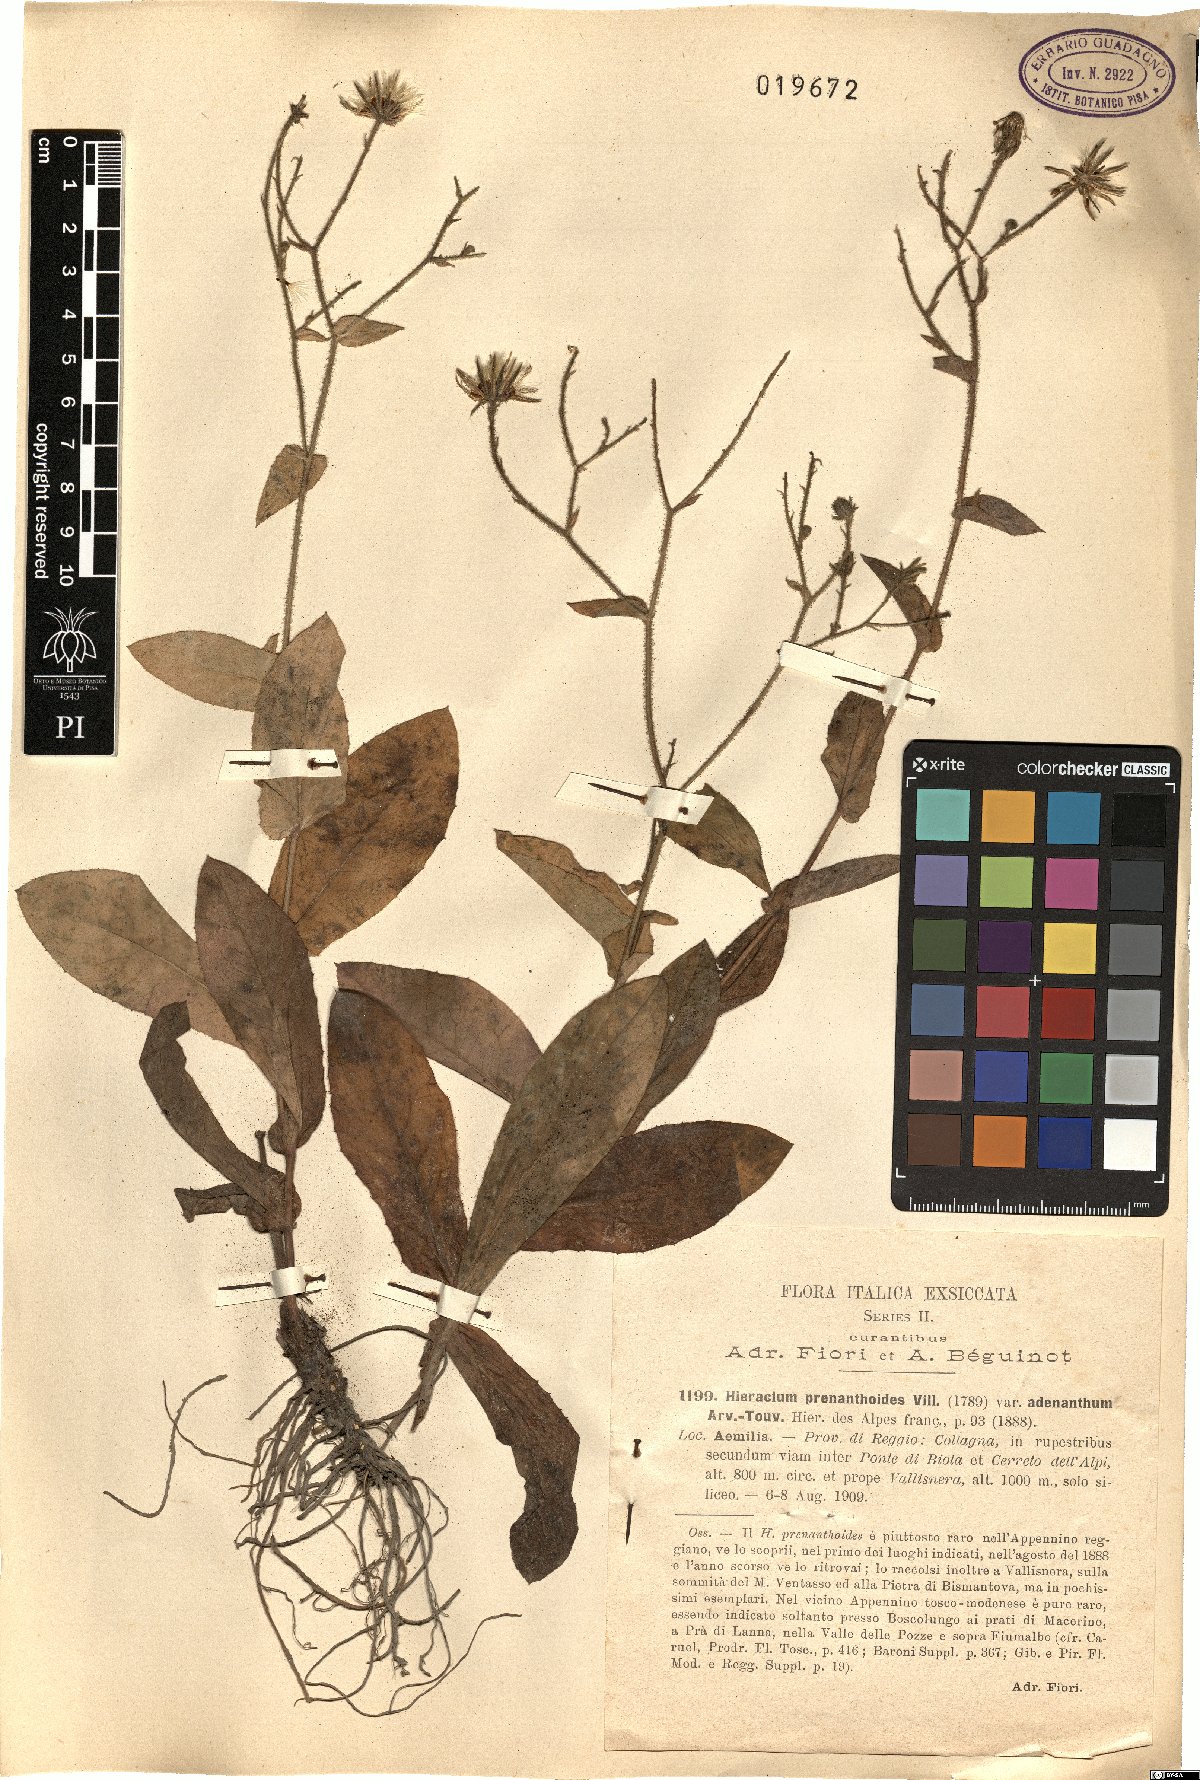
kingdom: Plantae
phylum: Tracheophyta
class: Magnoliopsida
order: Asterales
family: Asteraceae
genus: Hieracium
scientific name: Hieracium prenanthoides
